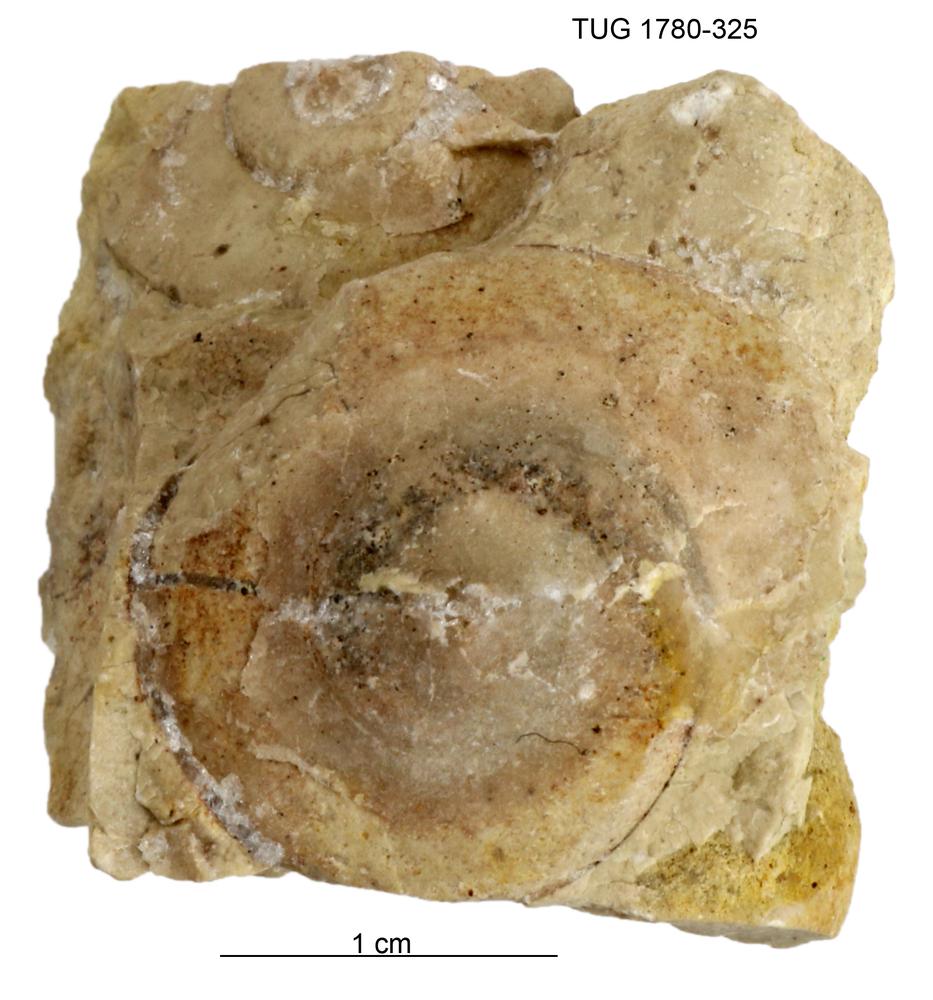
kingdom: Animalia
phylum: Mollusca
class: Gastropoda
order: Pleurotomariida
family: Eotomariidae
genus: Liospira
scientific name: Liospira
